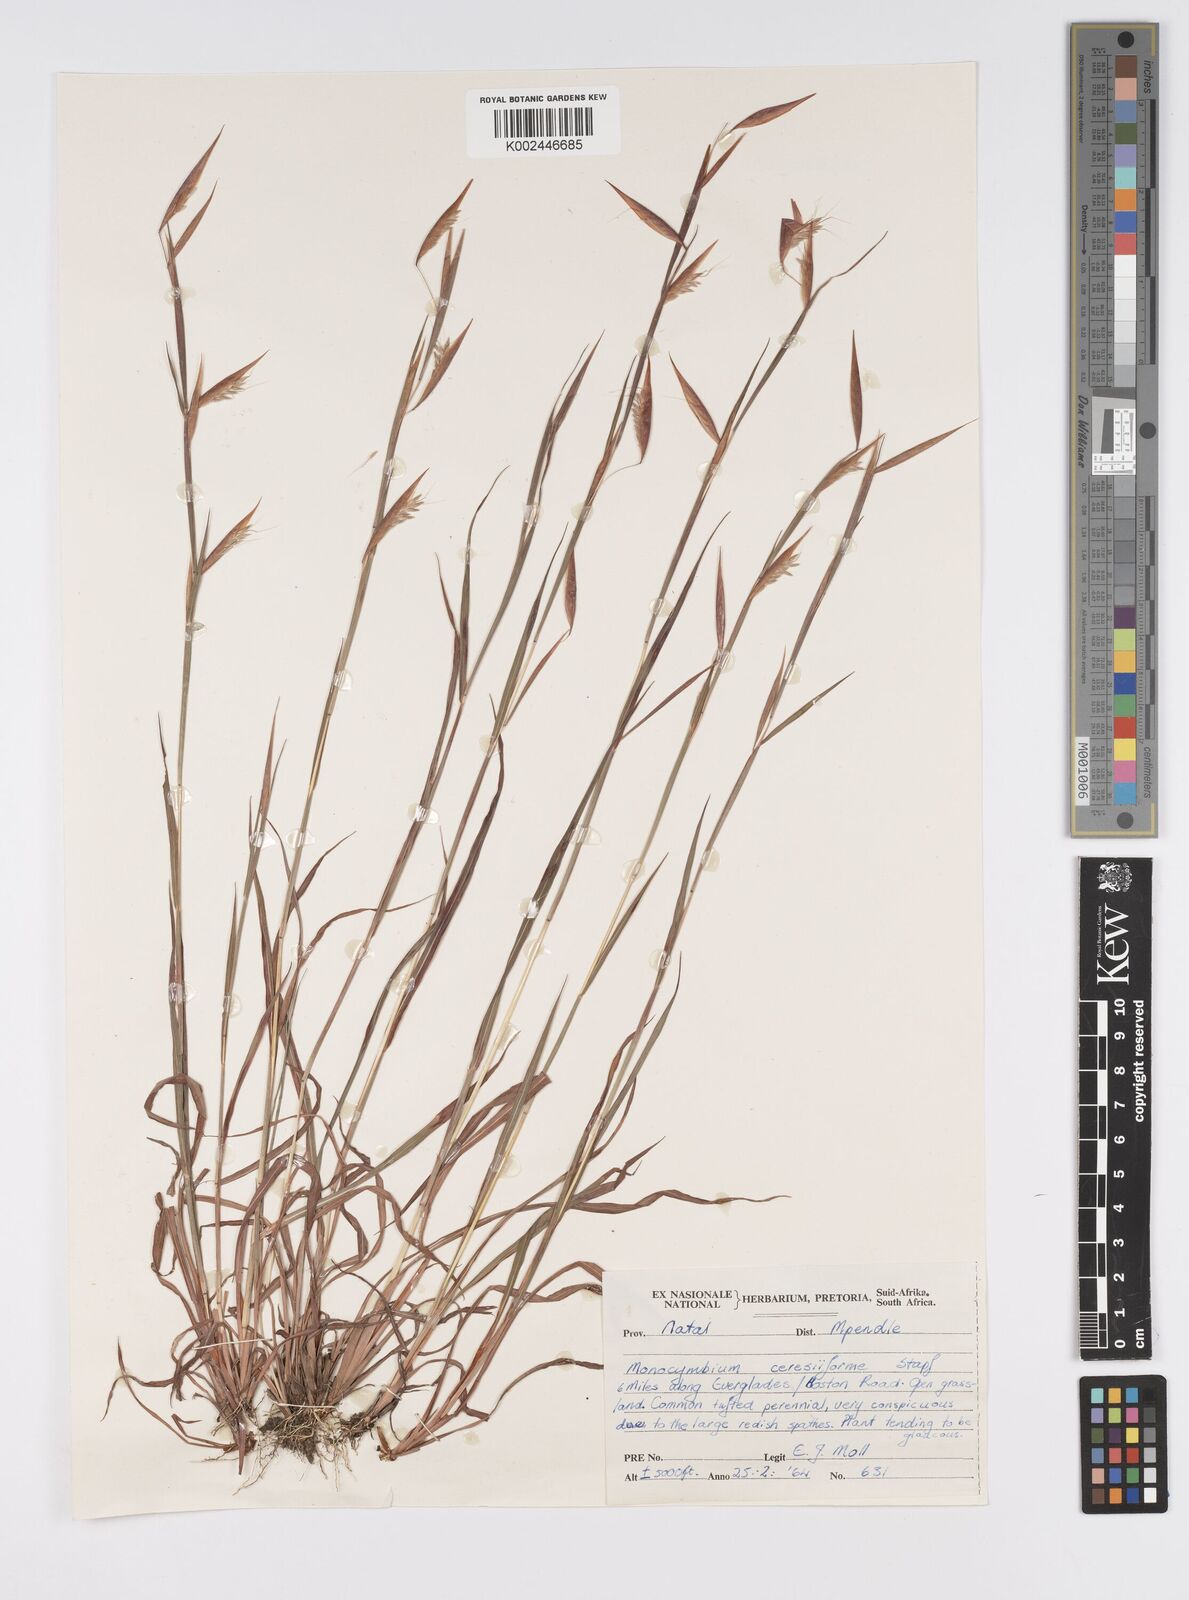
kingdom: Plantae
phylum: Tracheophyta
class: Liliopsida
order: Poales
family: Poaceae
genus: Monocymbium
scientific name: Monocymbium ceresiiforme
